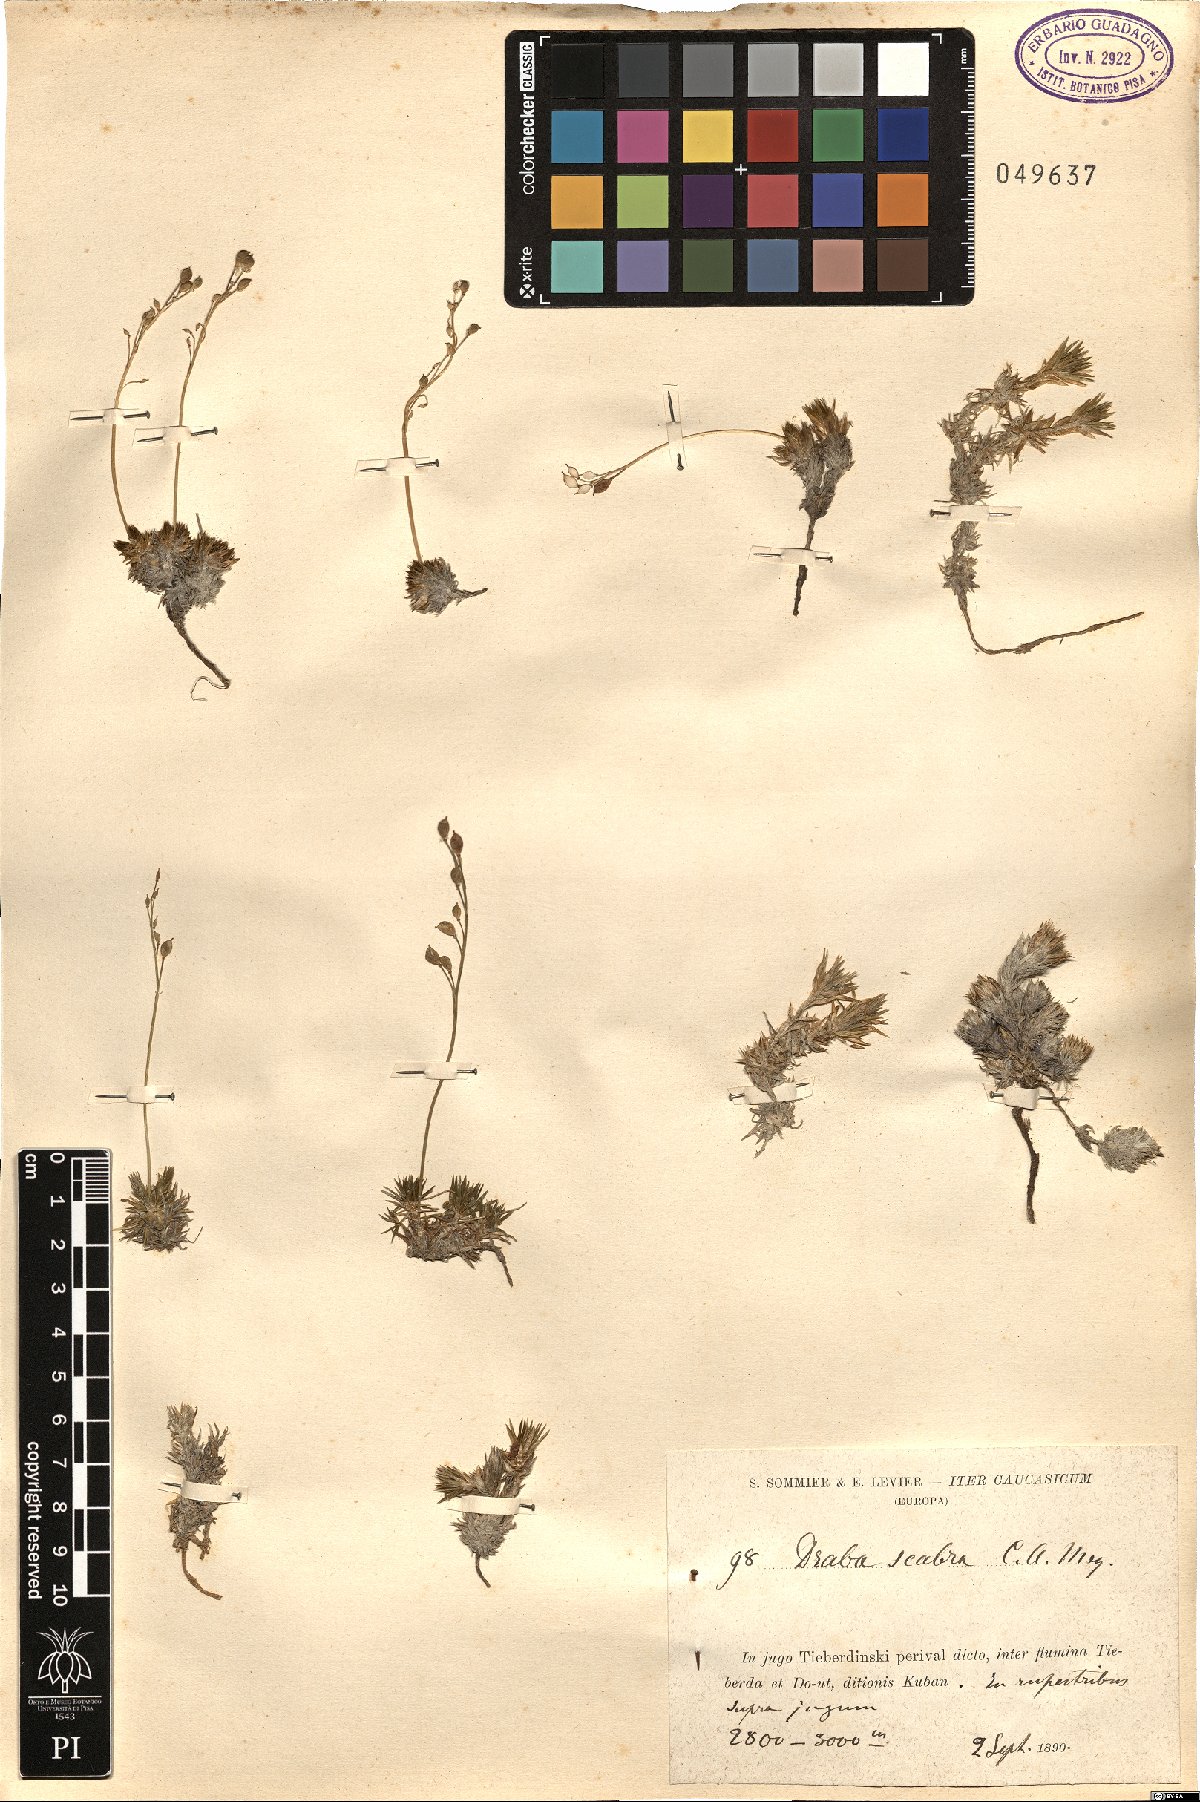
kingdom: Plantae
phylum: Tracheophyta
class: Magnoliopsida
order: Brassicales
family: Brassicaceae
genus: Draba
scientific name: Draba scabra
